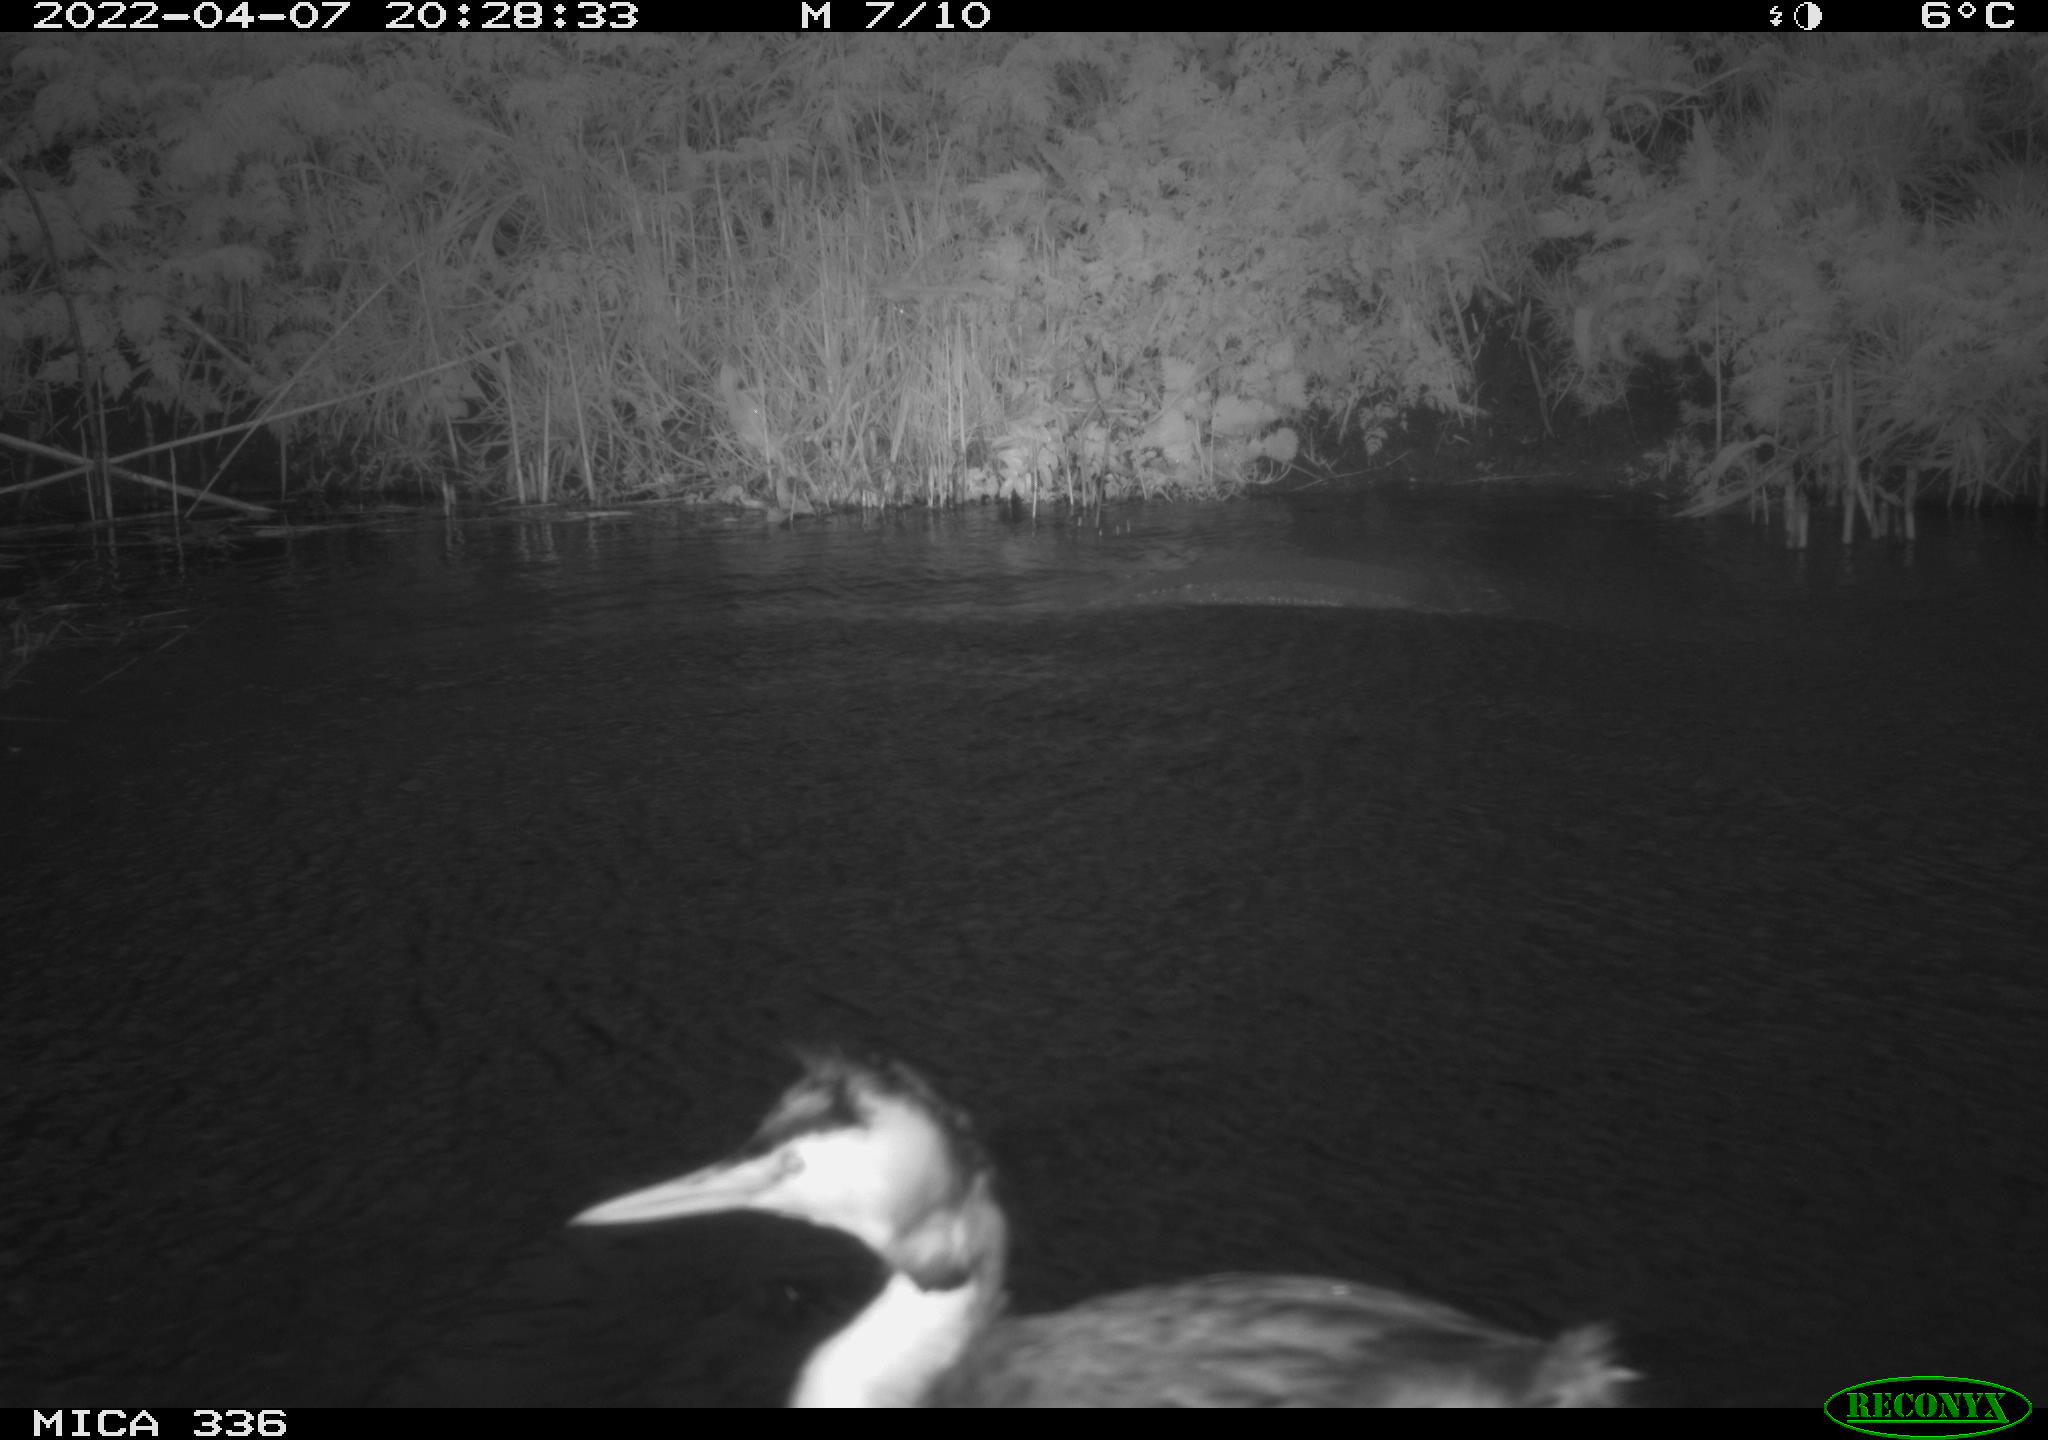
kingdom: Animalia
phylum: Chordata
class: Aves
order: Podicipediformes
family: Podicipedidae
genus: Podiceps
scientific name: Podiceps cristatus
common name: Great crested grebe
